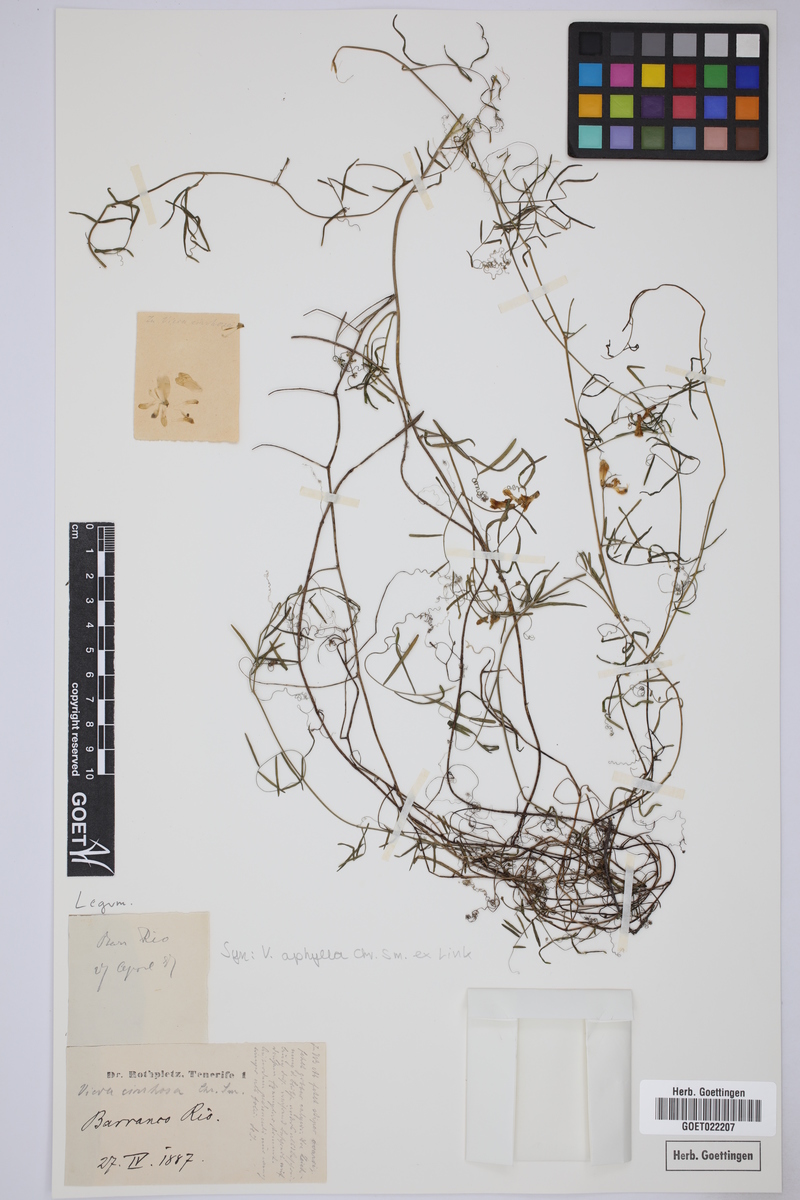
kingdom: Plantae
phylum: Tracheophyta
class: Magnoliopsida
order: Fabales
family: Fabaceae
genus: Vicia
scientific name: Vicia aphylla
